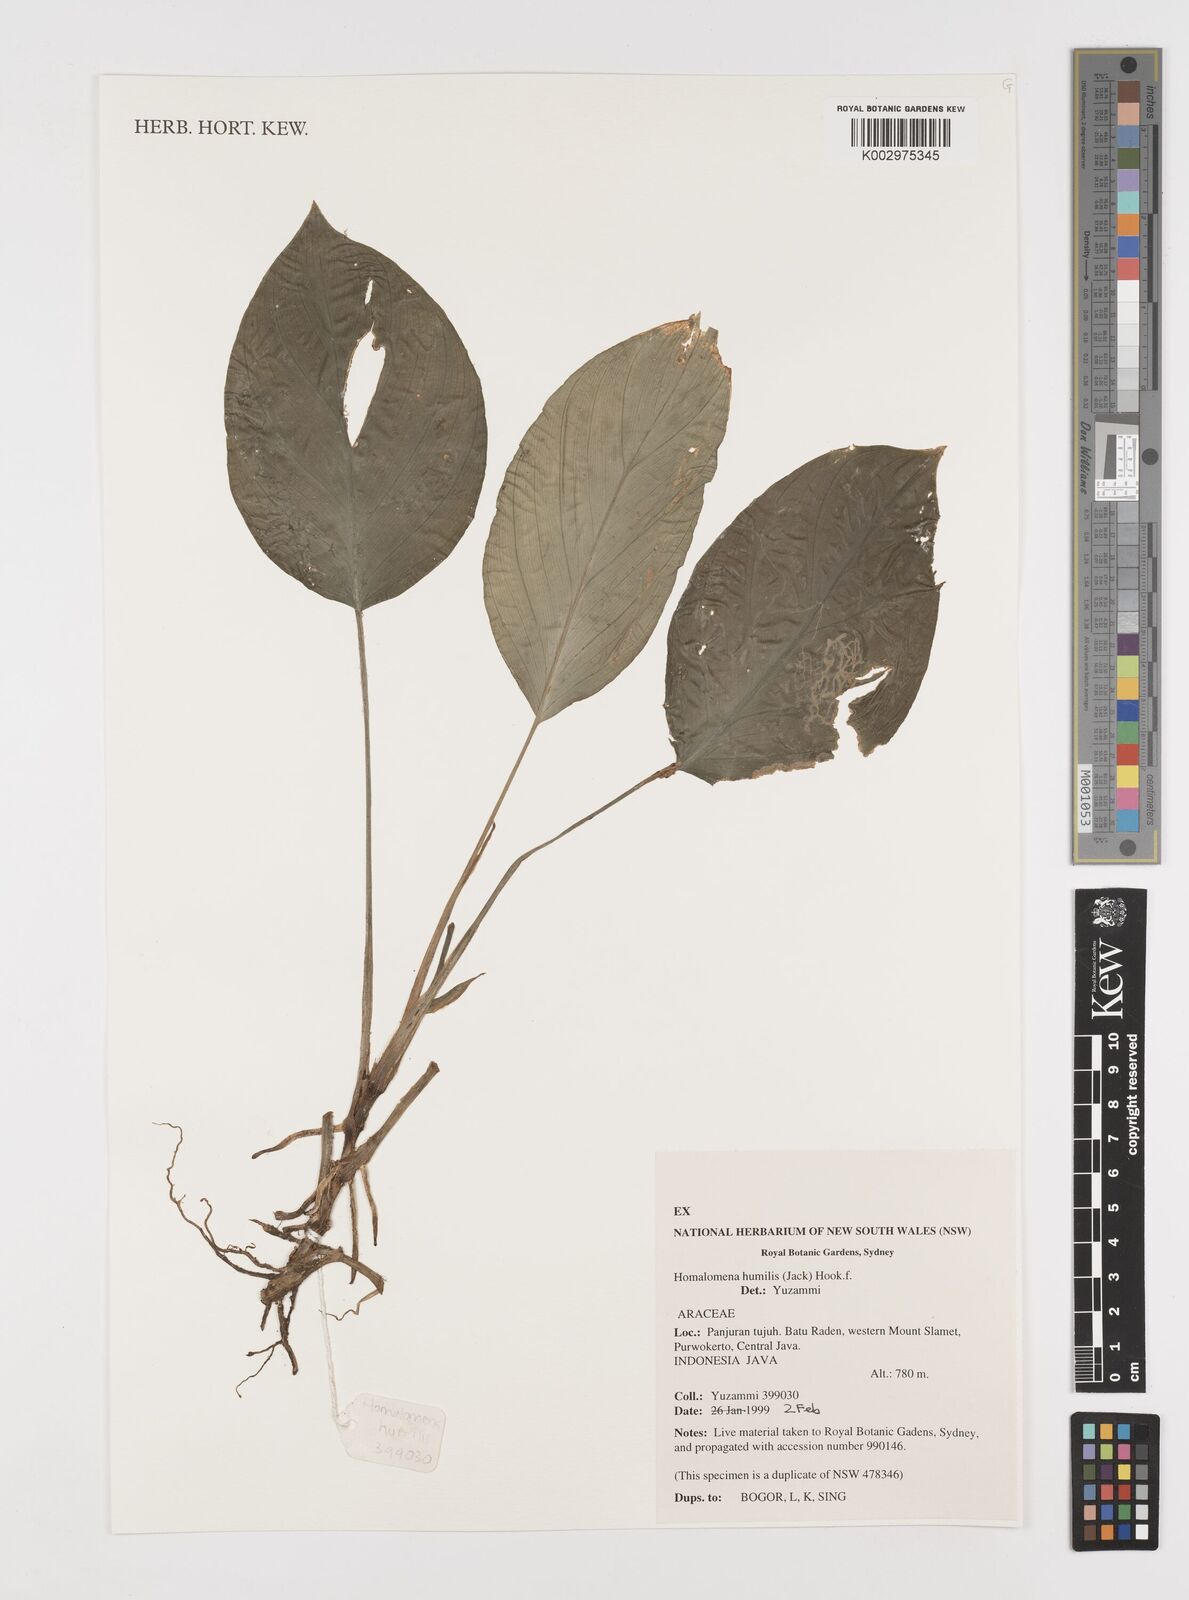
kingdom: Plantae
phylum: Tracheophyta
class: Liliopsida
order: Alismatales
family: Araceae
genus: Homalomena
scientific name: Homalomena humilis
